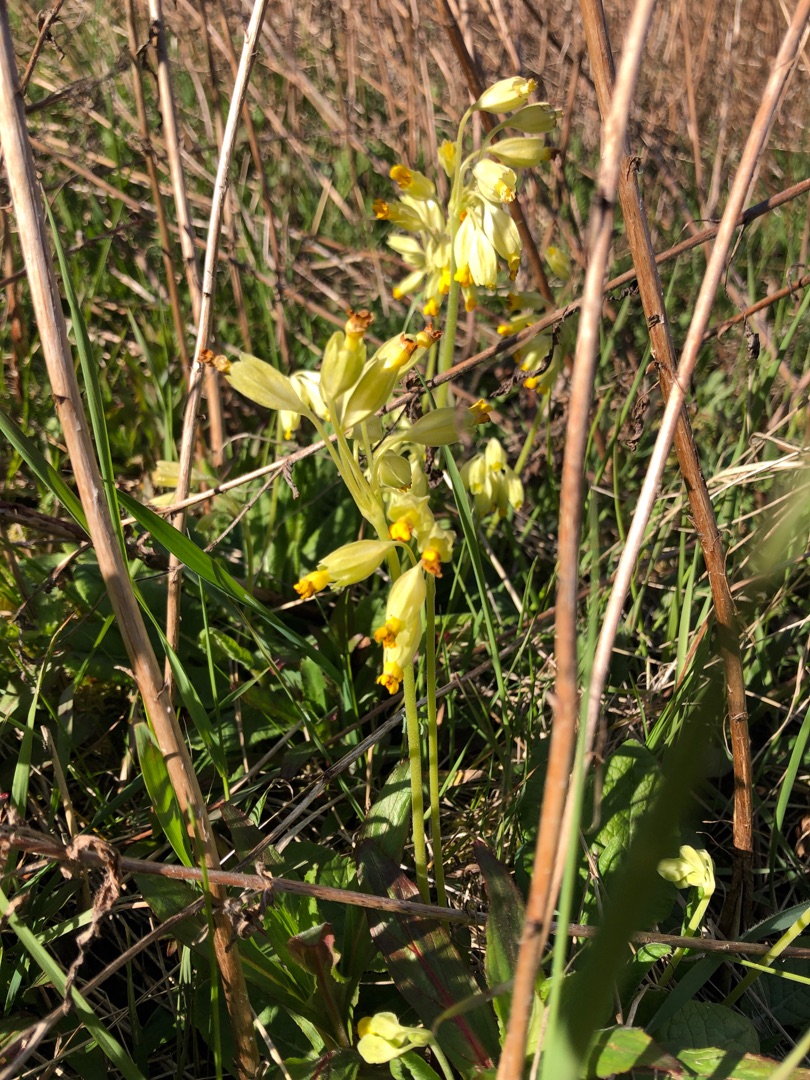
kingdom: Plantae
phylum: Tracheophyta
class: Magnoliopsida
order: Ericales
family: Primulaceae
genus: Primula
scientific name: Primula veris
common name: Hulkravet kodriver
